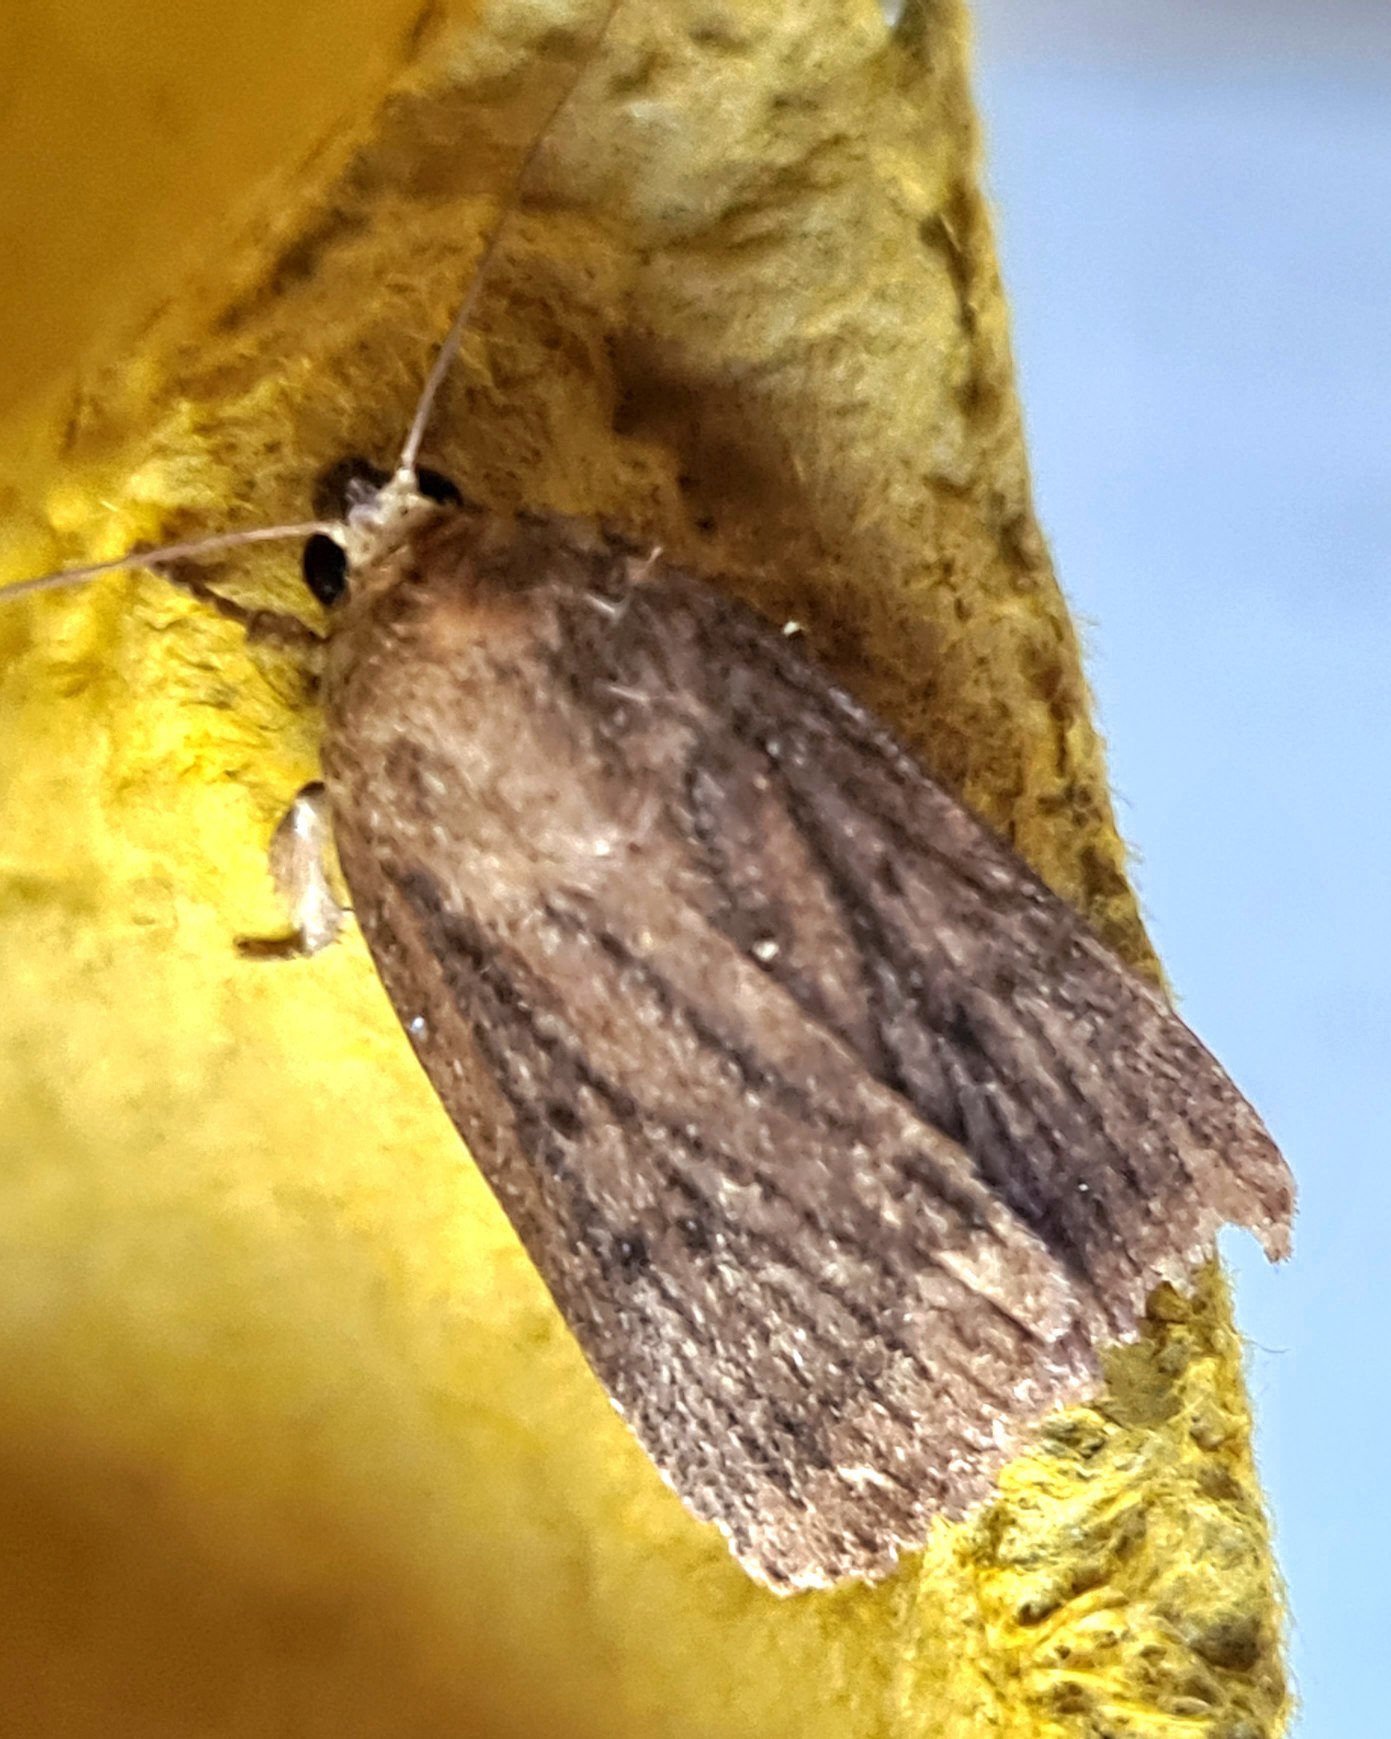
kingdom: Animalia
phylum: Arthropoda
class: Insecta
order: Lepidoptera
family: Noctuidae
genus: Amphipyra
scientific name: Amphipyra tragopoginis
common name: Blyantsugle
